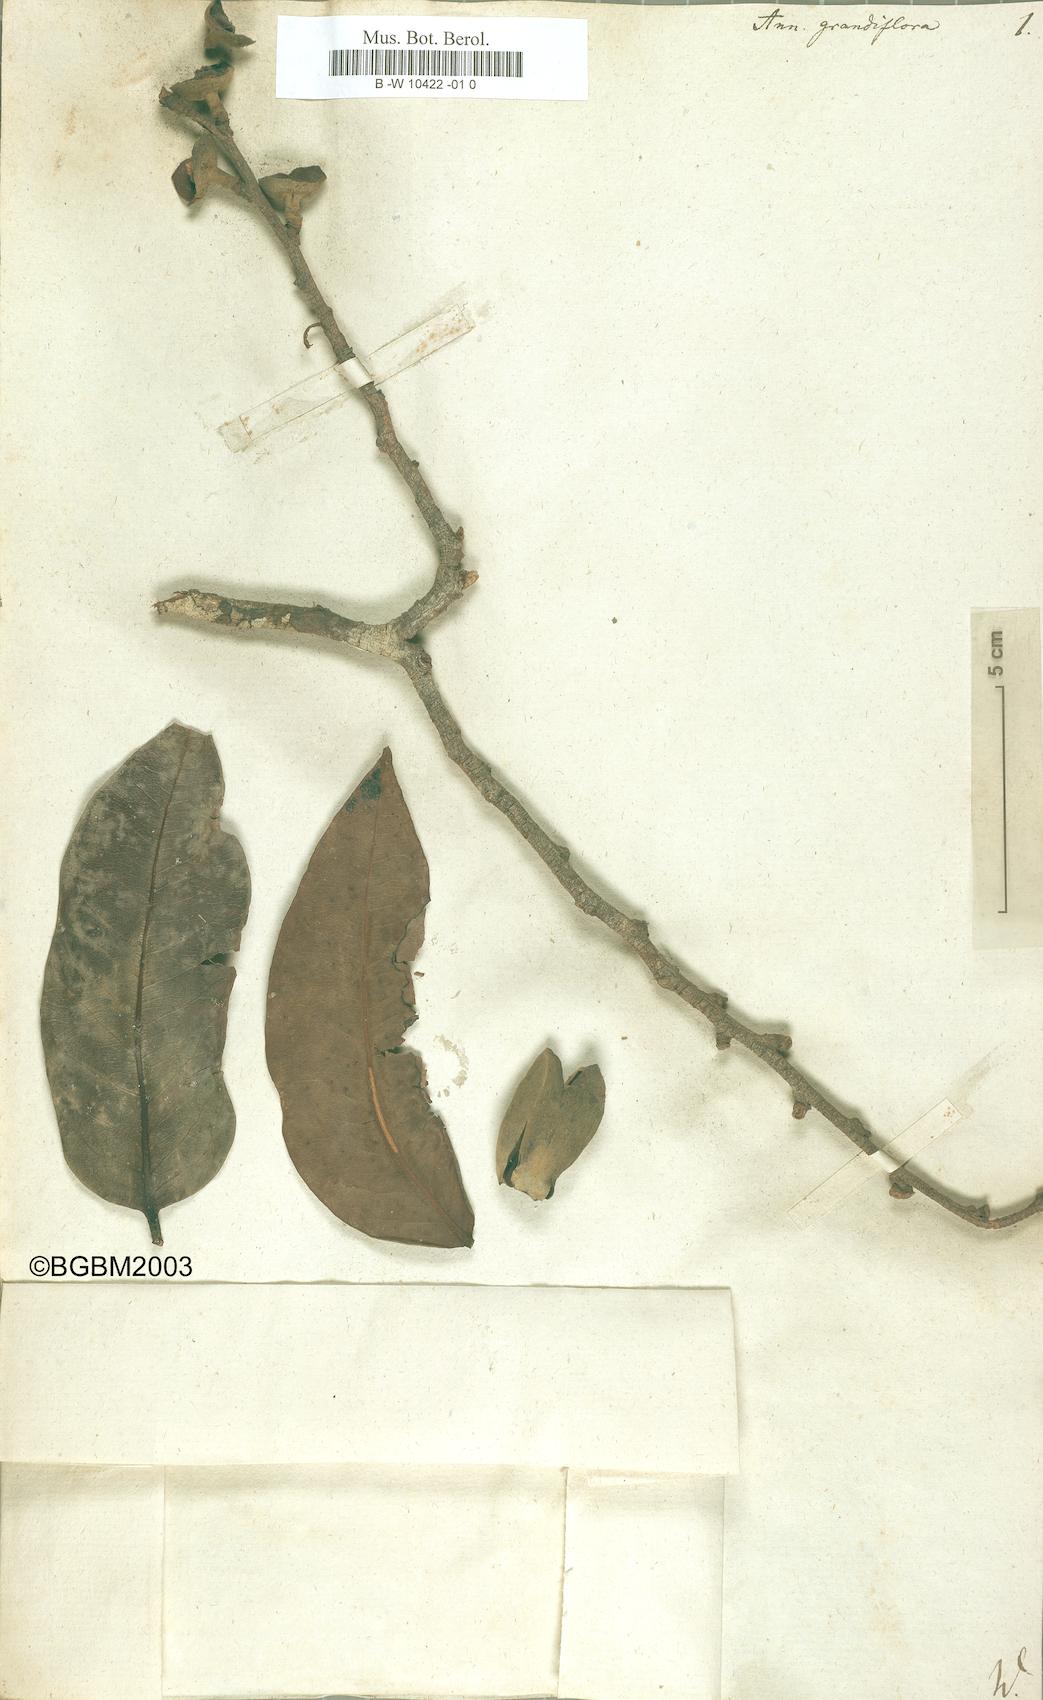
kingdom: Plantae
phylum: Tracheophyta
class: Magnoliopsida
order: Magnoliales
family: Annonaceae
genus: Asimina
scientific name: Asimina obovata
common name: Flag pawpaw
